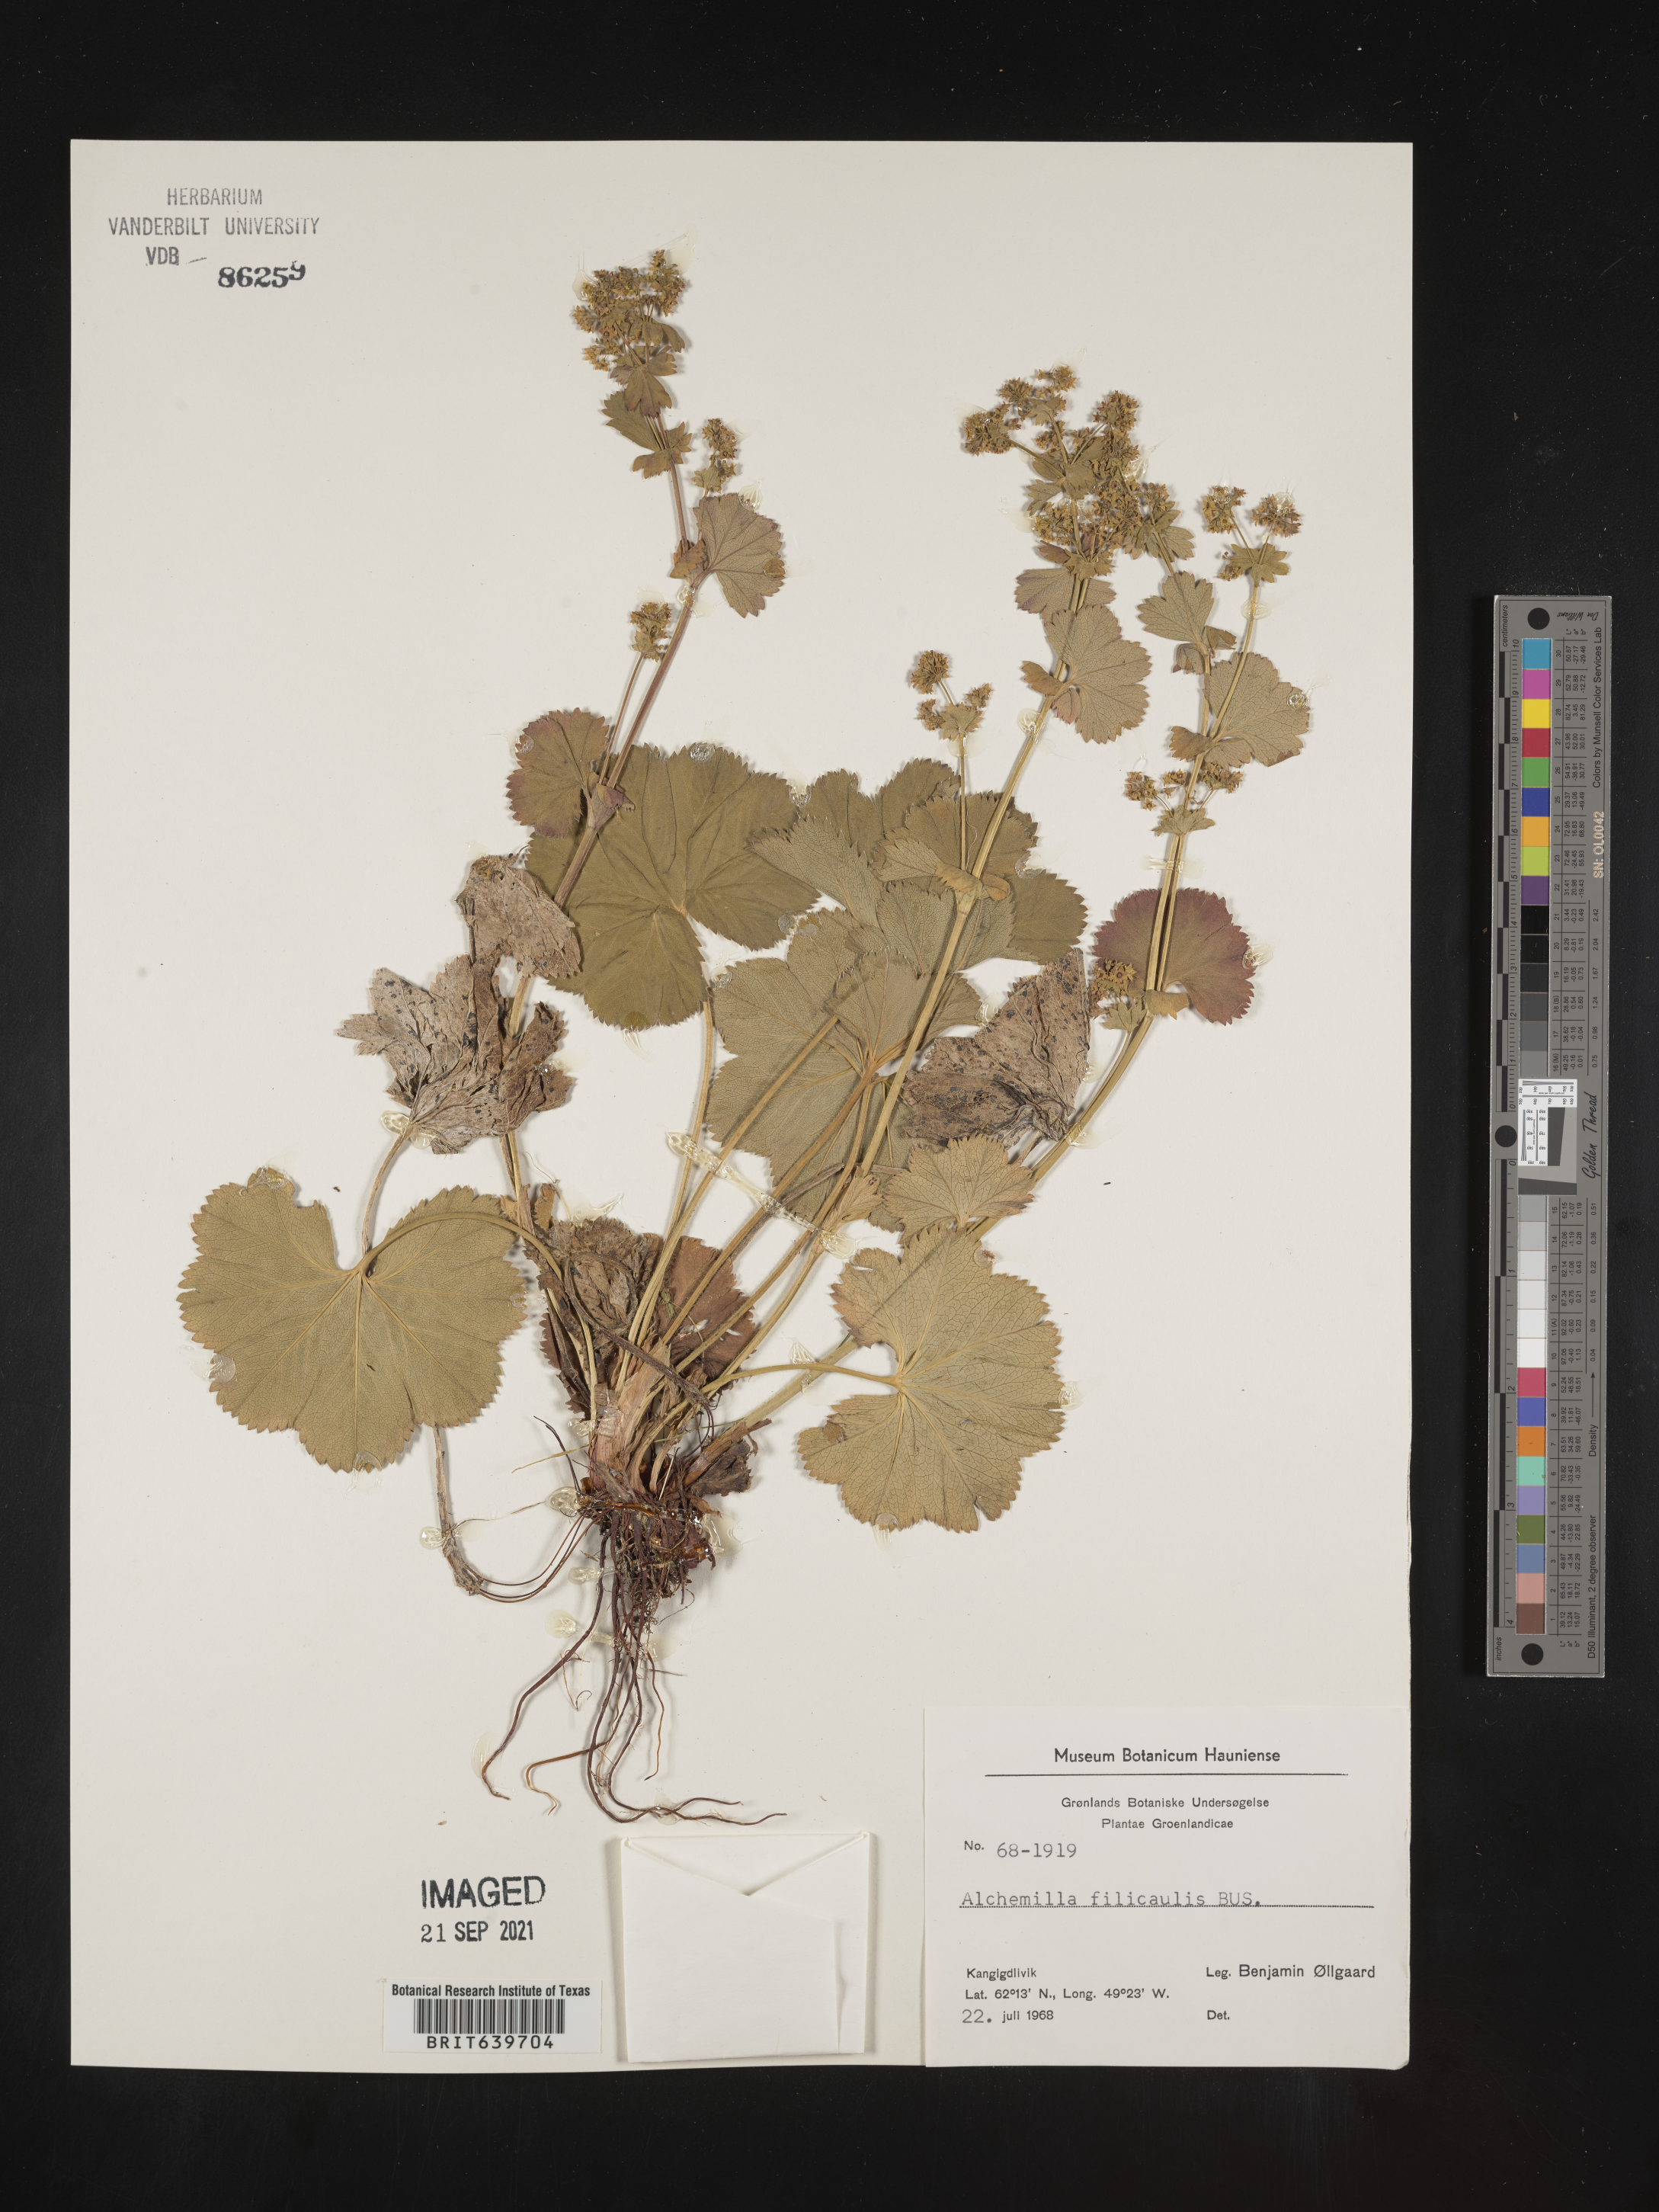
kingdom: Plantae
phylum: Tracheophyta
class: Magnoliopsida
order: Rosales
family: Rosaceae
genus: Alchemilla
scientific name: Alchemilla
